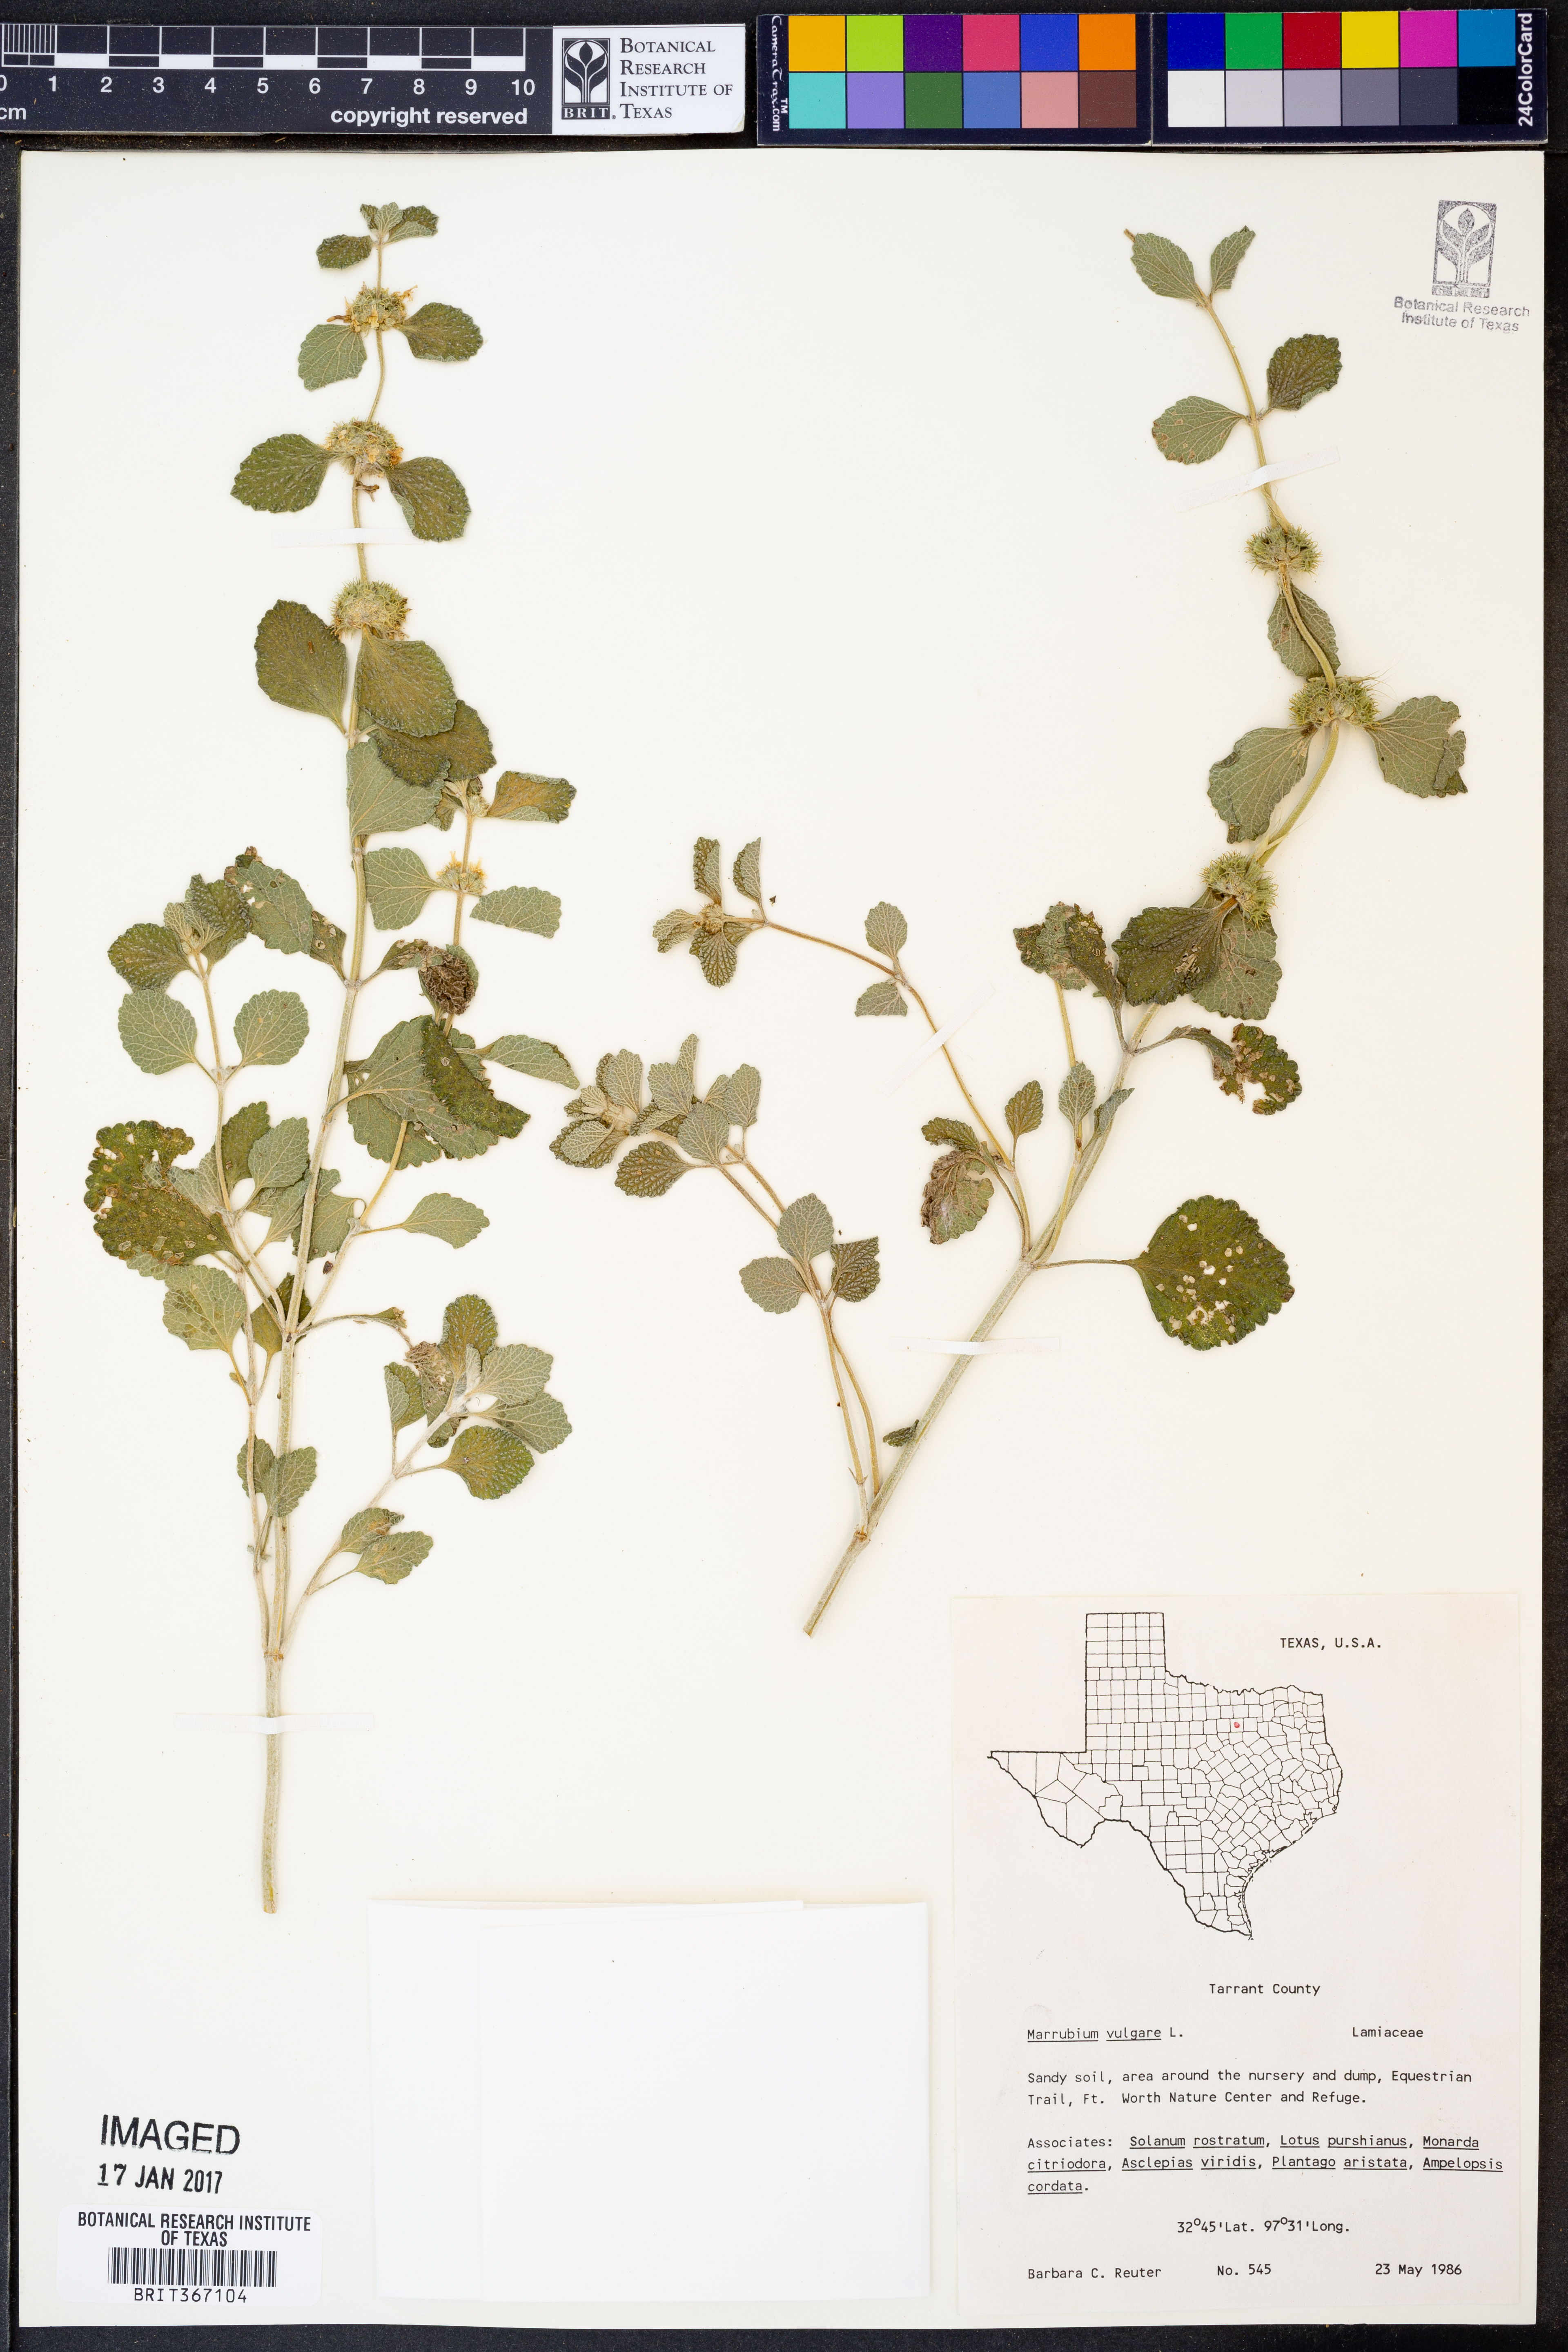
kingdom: Plantae
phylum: Tracheophyta
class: Magnoliopsida
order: Lamiales
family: Lamiaceae
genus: Marrubium
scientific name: Marrubium vulgare
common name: Horehound
